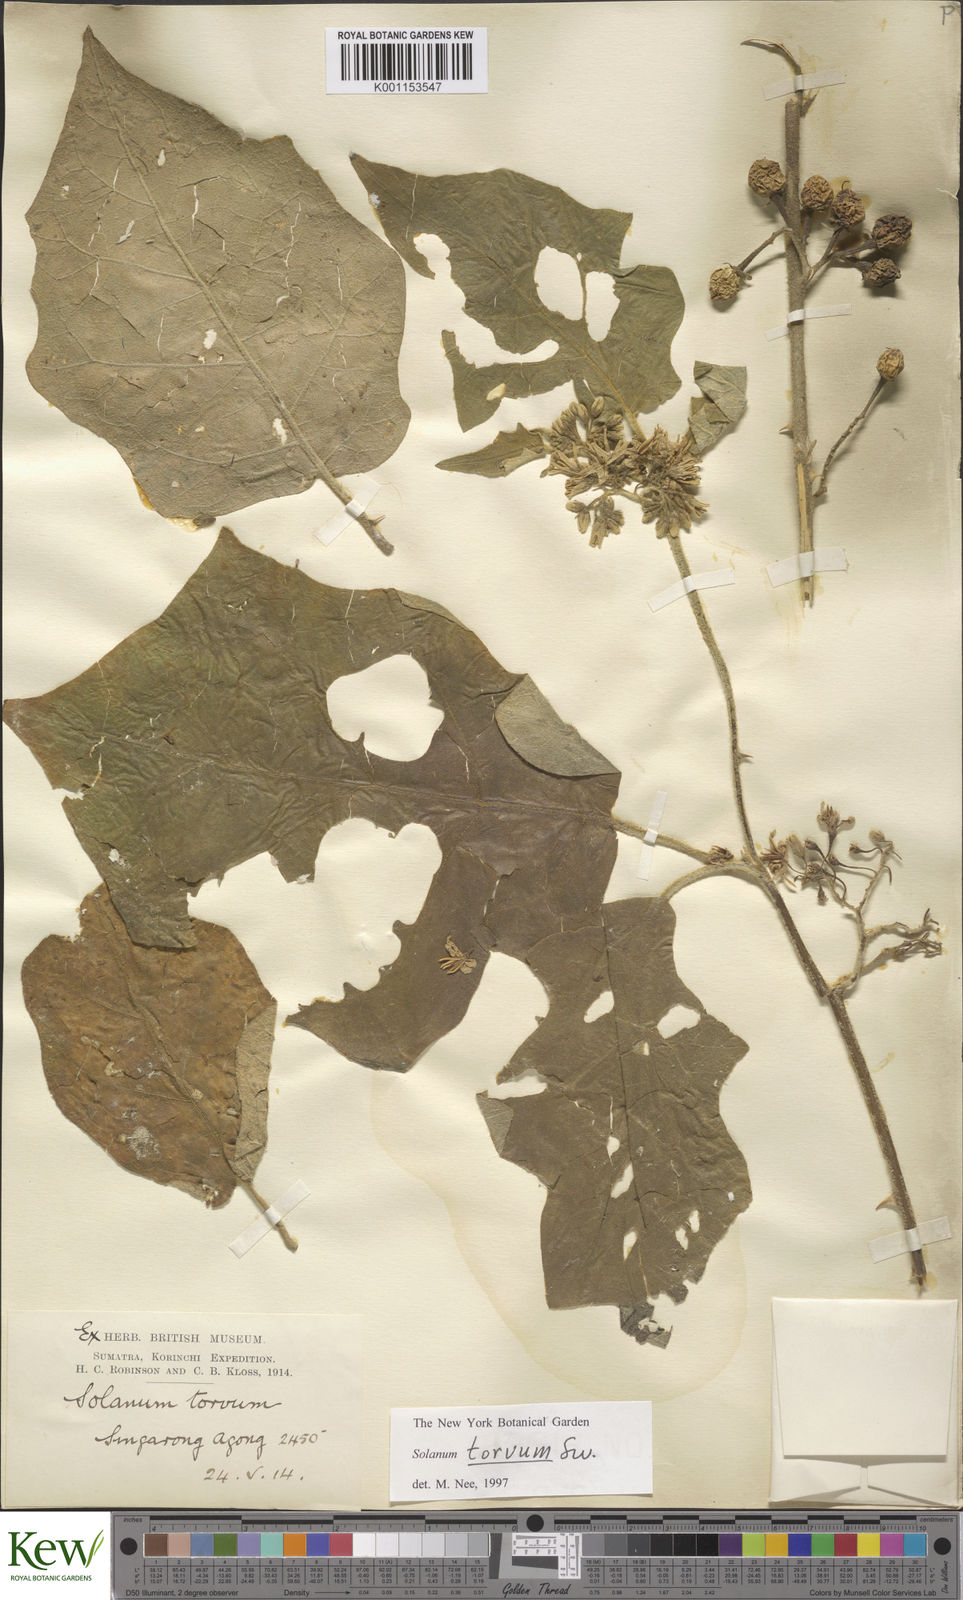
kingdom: Plantae
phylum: Tracheophyta
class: Magnoliopsida
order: Solanales
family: Solanaceae
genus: Solanum
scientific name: Solanum torvum
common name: Turkey berry
